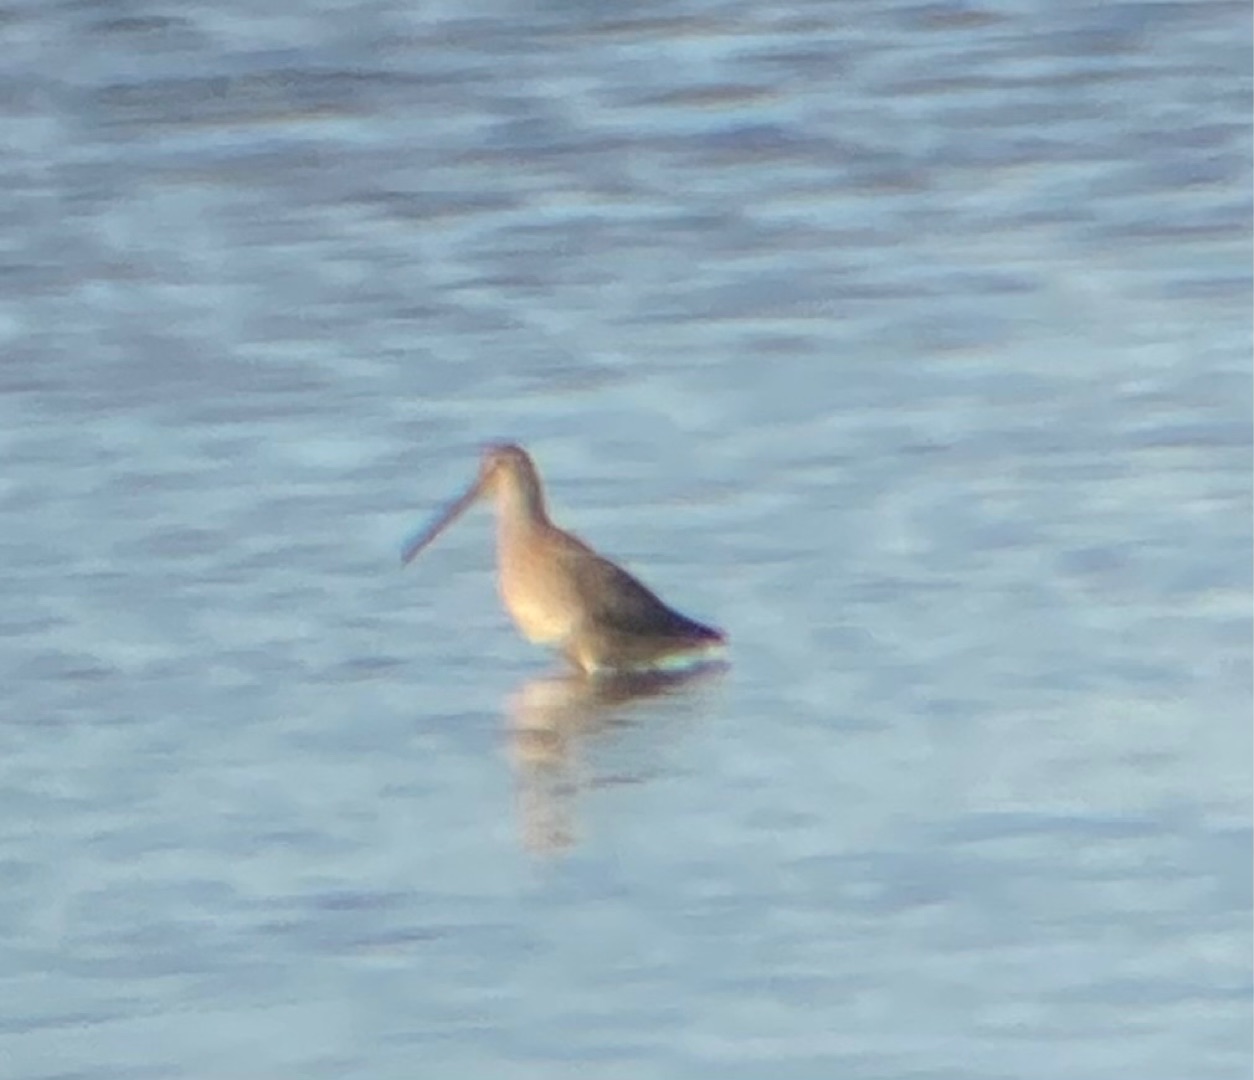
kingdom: Animalia
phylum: Chordata
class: Aves
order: Charadriiformes
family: Scolopacidae
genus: Limnodromus
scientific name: Limnodromus scolopaceus
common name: Langnæbbet sneppeklire
